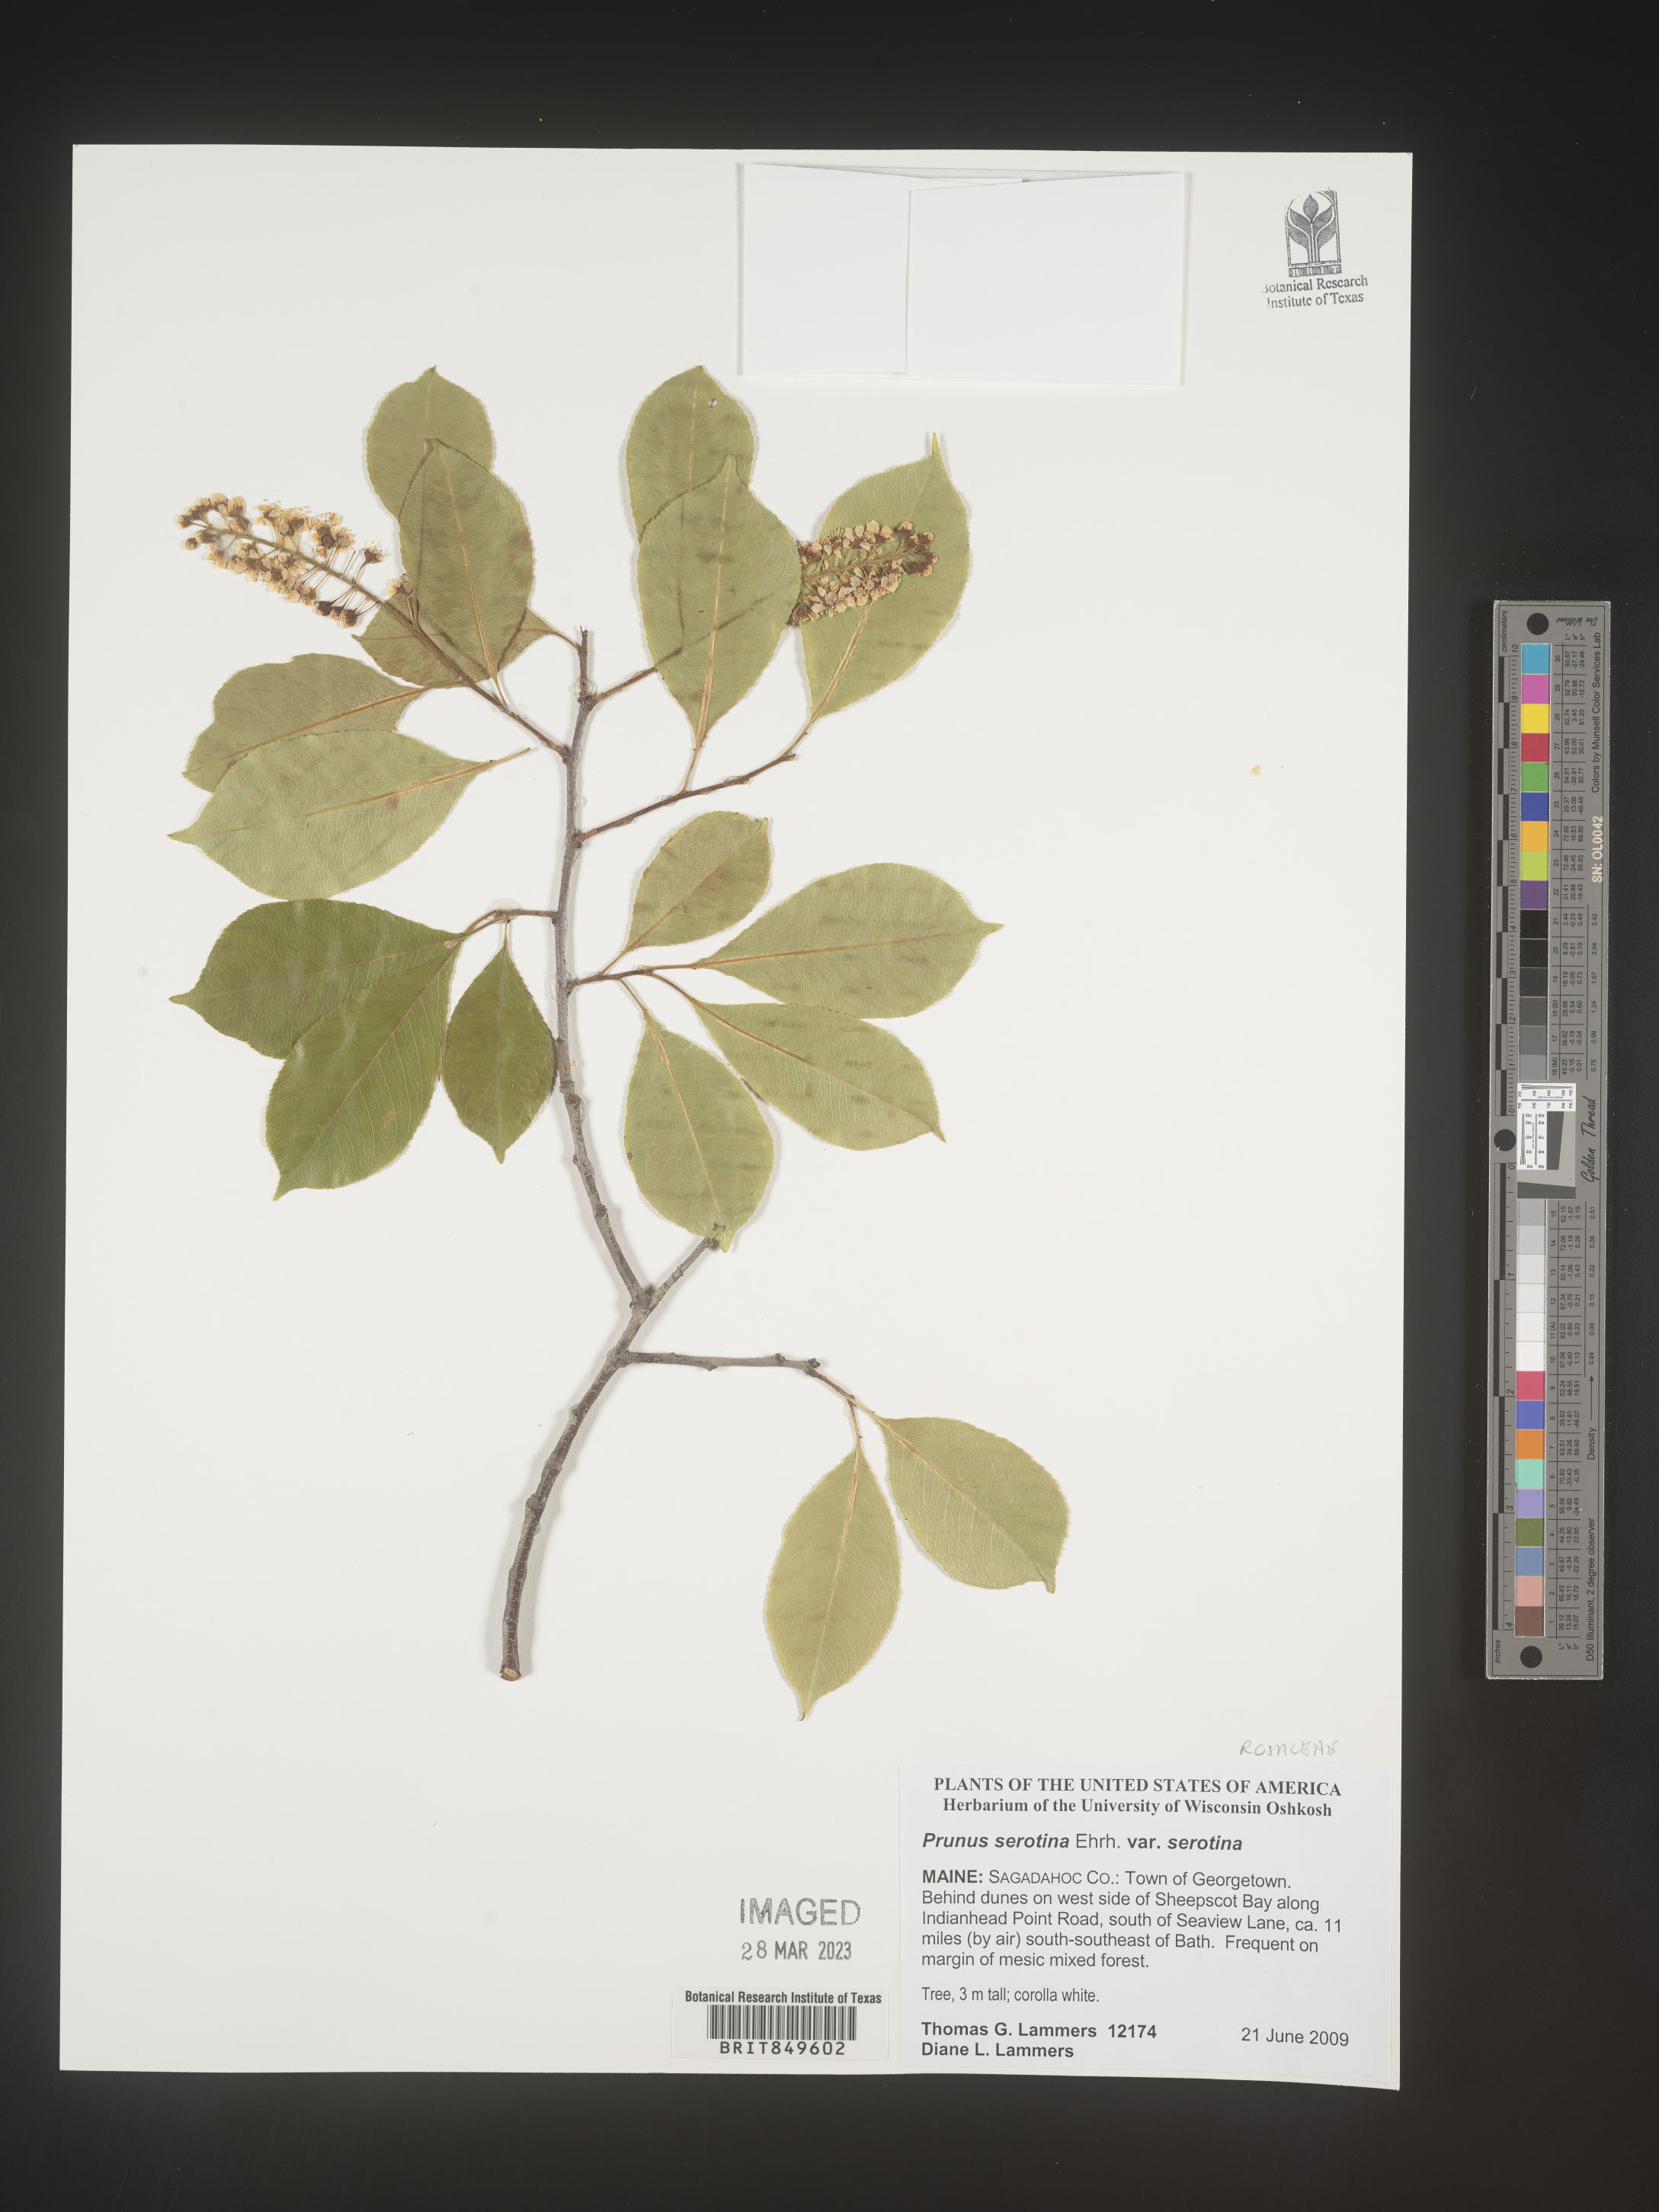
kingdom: Plantae
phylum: Tracheophyta
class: Magnoliopsida
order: Rosales
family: Rosaceae
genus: Prunus
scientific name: Prunus serotina
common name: Black cherry
